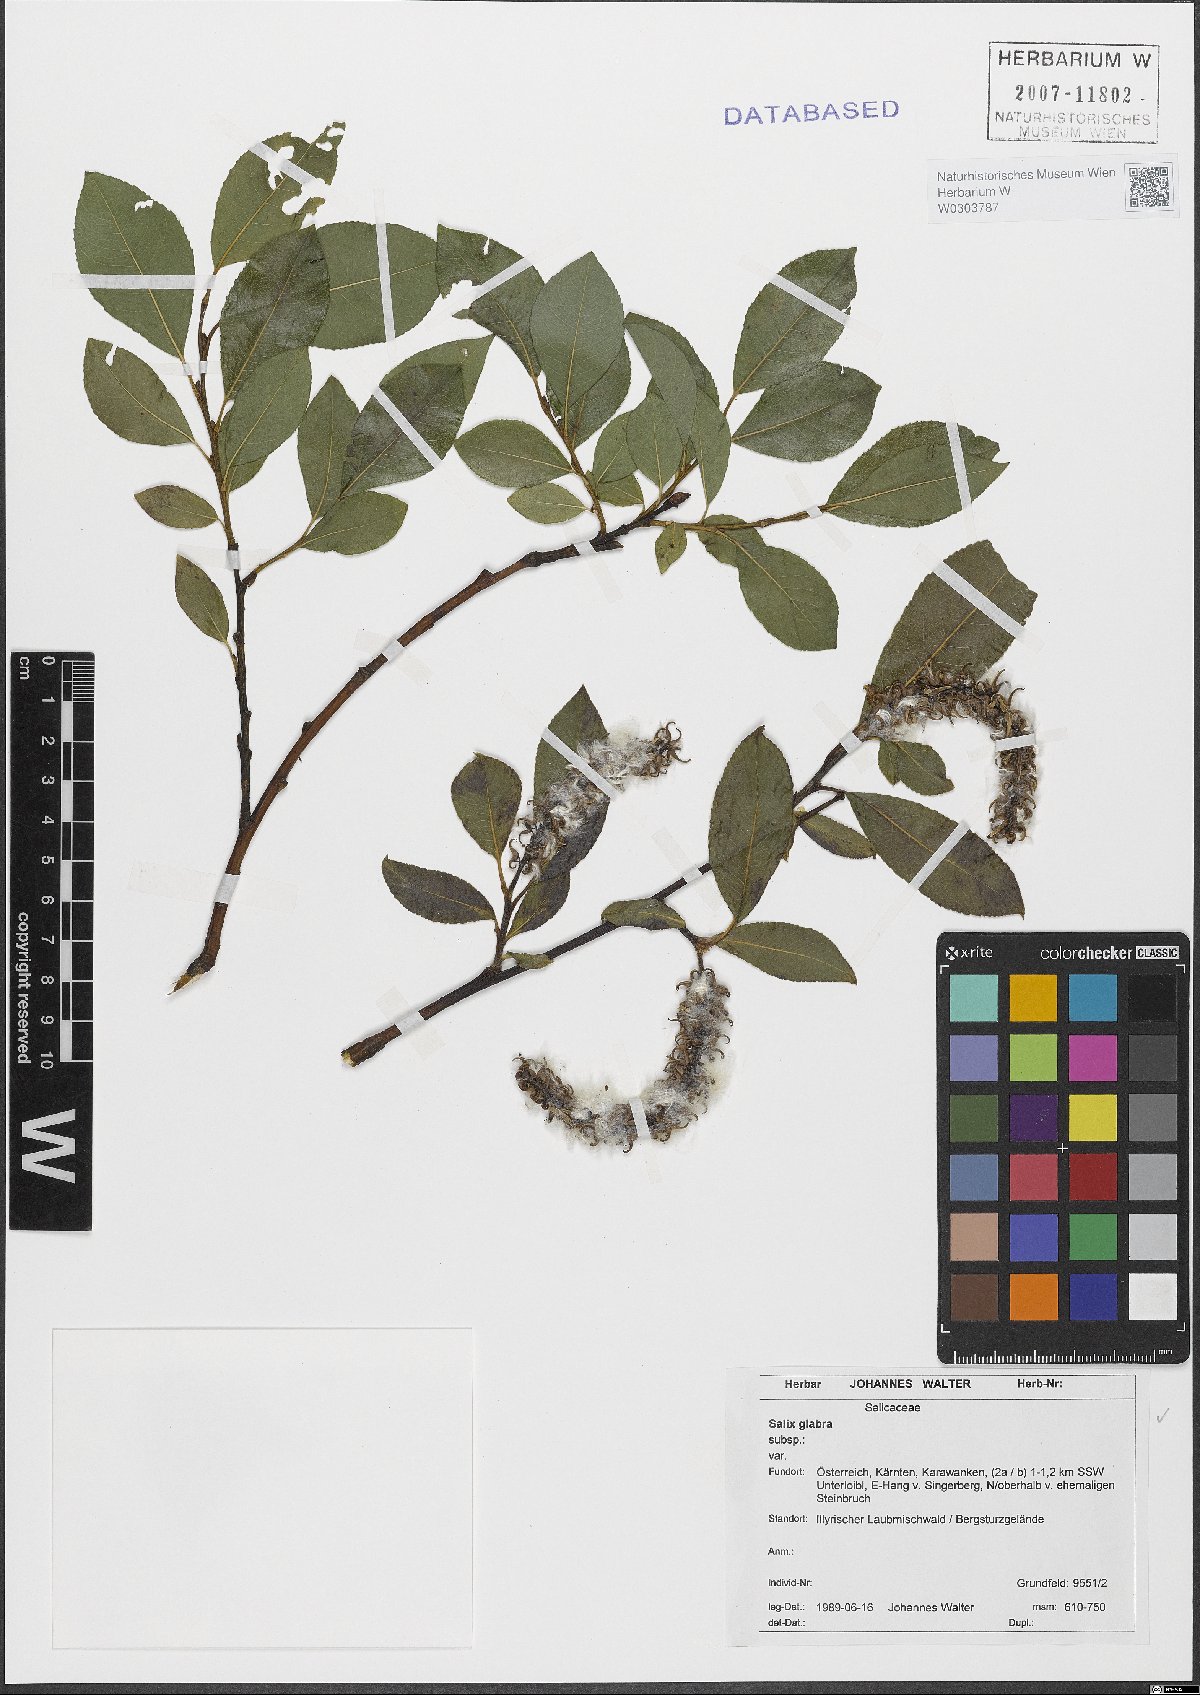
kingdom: Plantae
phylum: Tracheophyta
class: Magnoliopsida
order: Malpighiales
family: Salicaceae
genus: Salix
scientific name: Salix glabra
